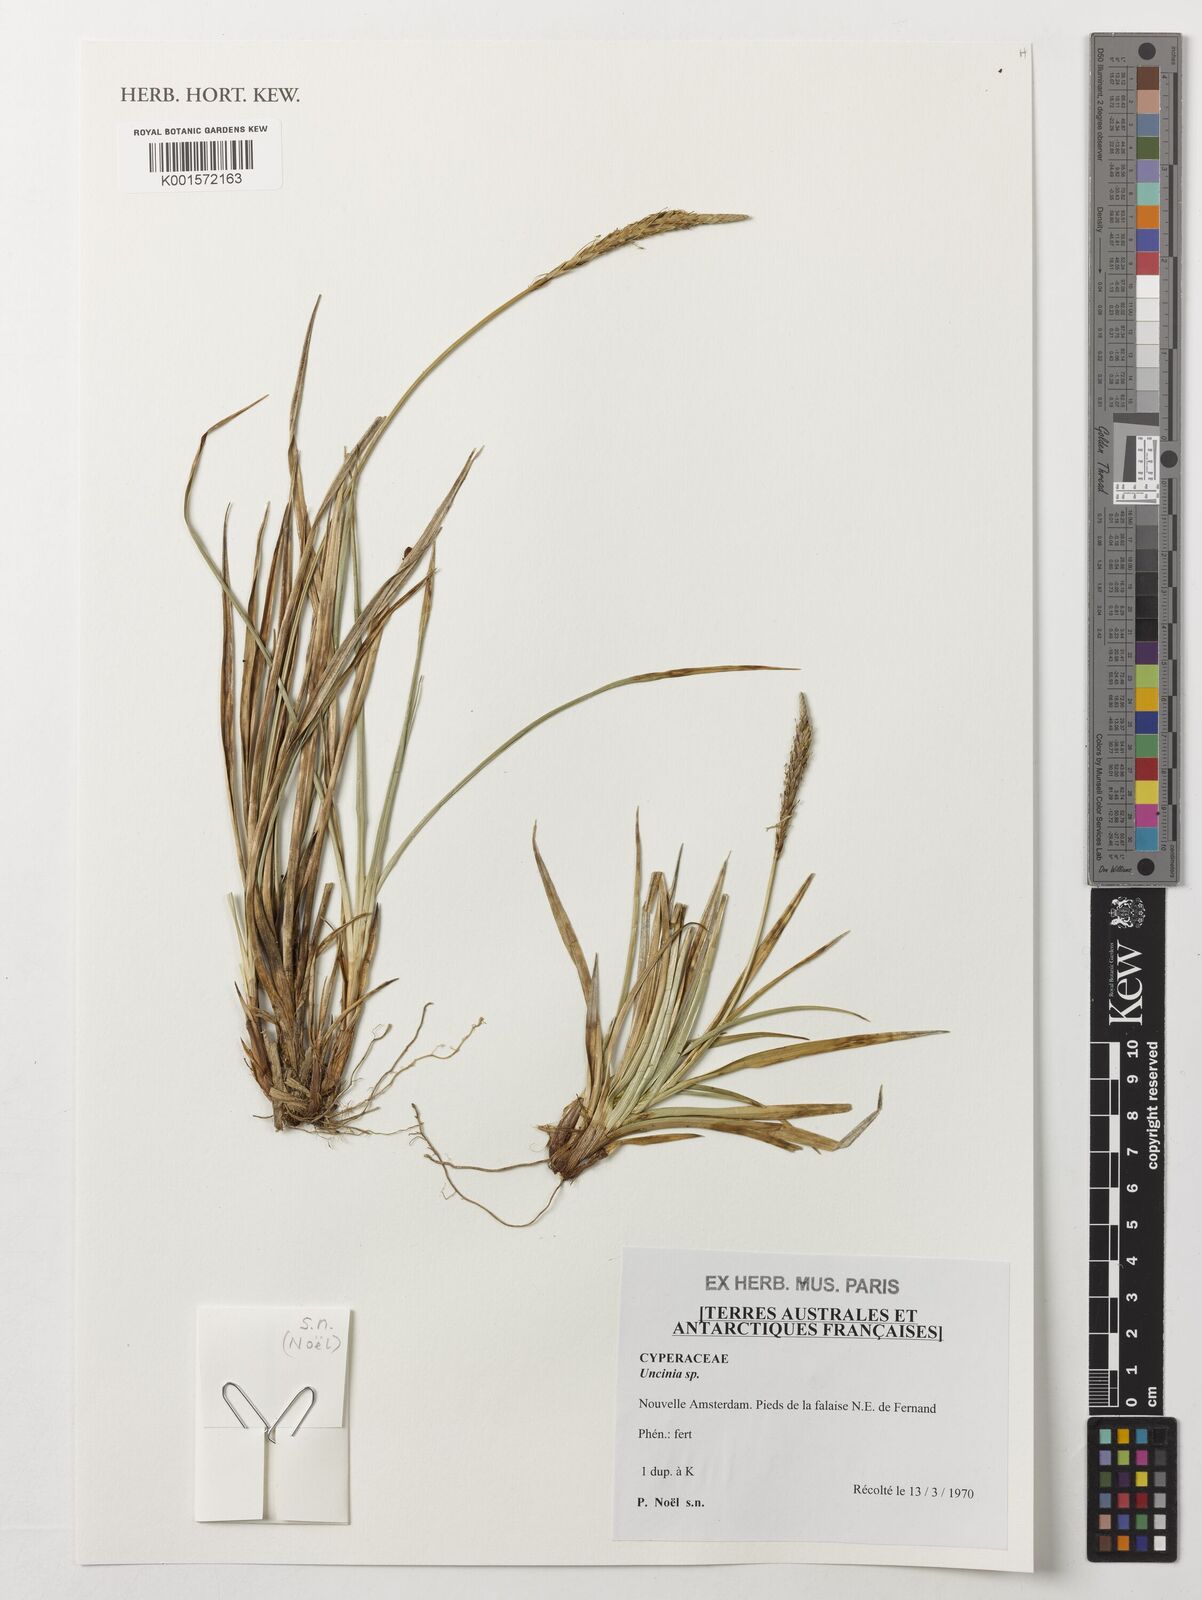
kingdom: Fungi
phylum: Ascomycota
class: Leotiomycetes
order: Helotiales
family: Hamatocanthoscyphaceae
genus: Uncinia
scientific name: Uncinia
